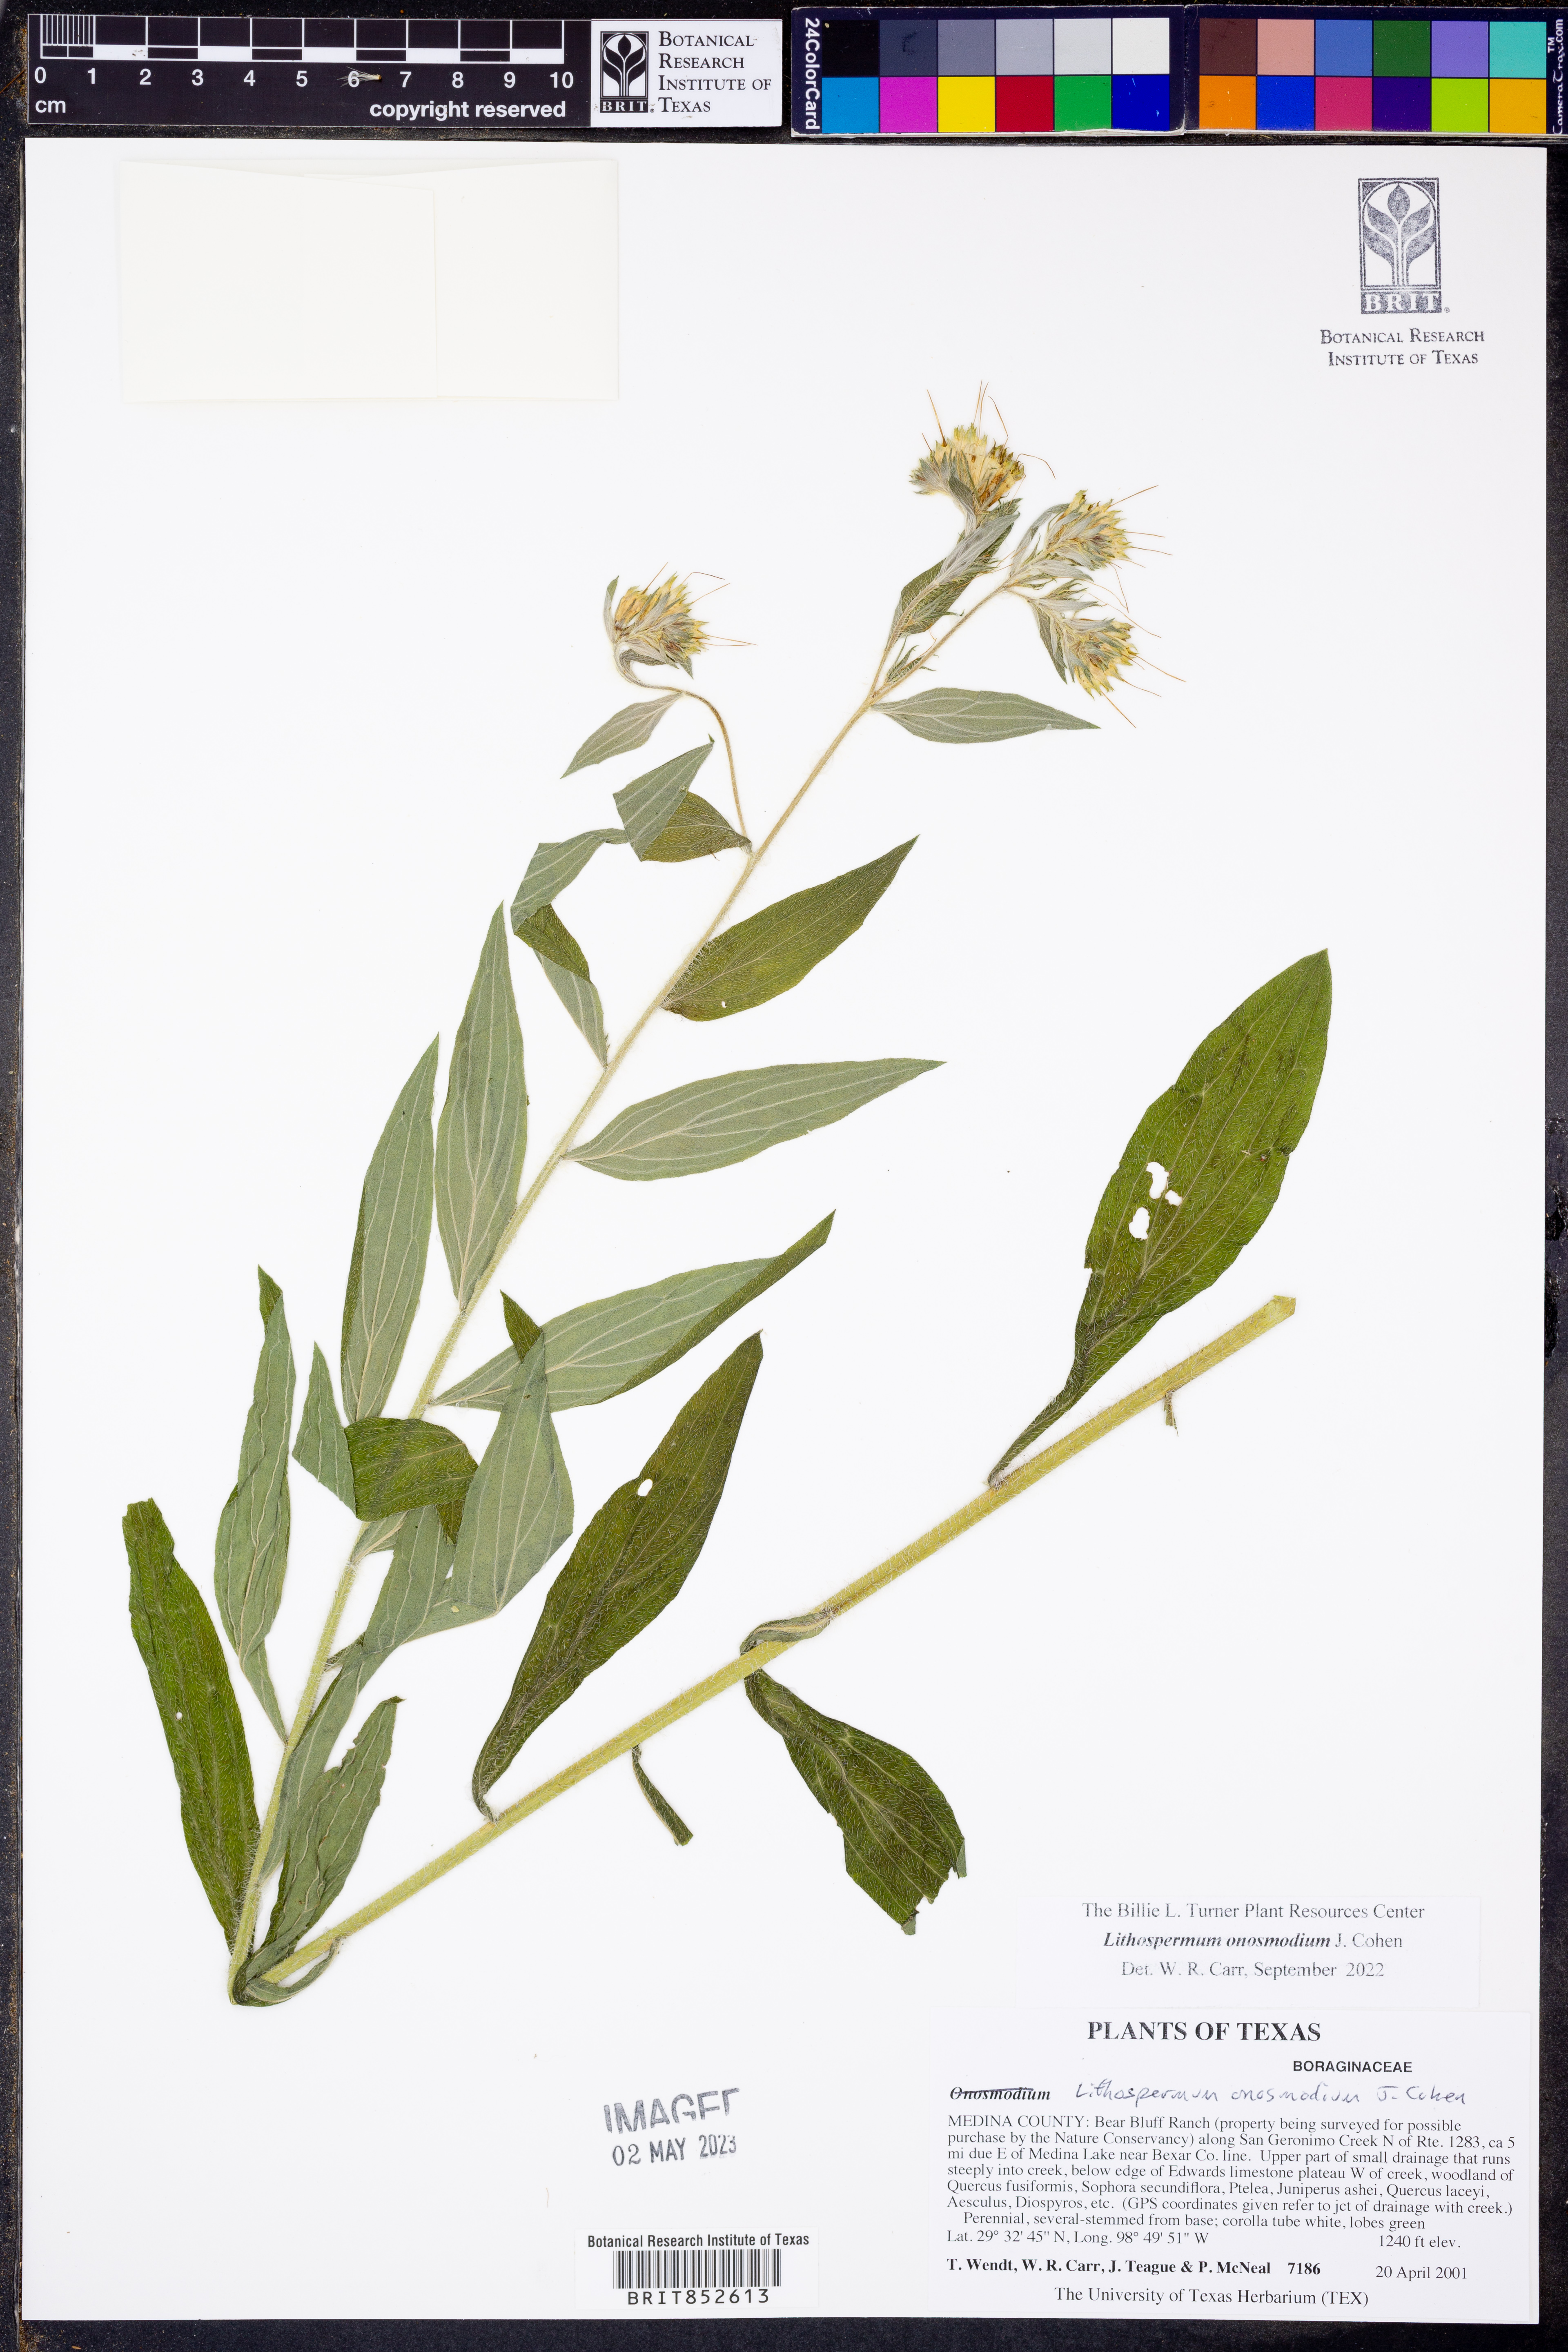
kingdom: Plantae
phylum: Tracheophyta
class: Magnoliopsida
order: Boraginales
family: Boraginaceae
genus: Lithospermum
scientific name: Lithospermum molle
